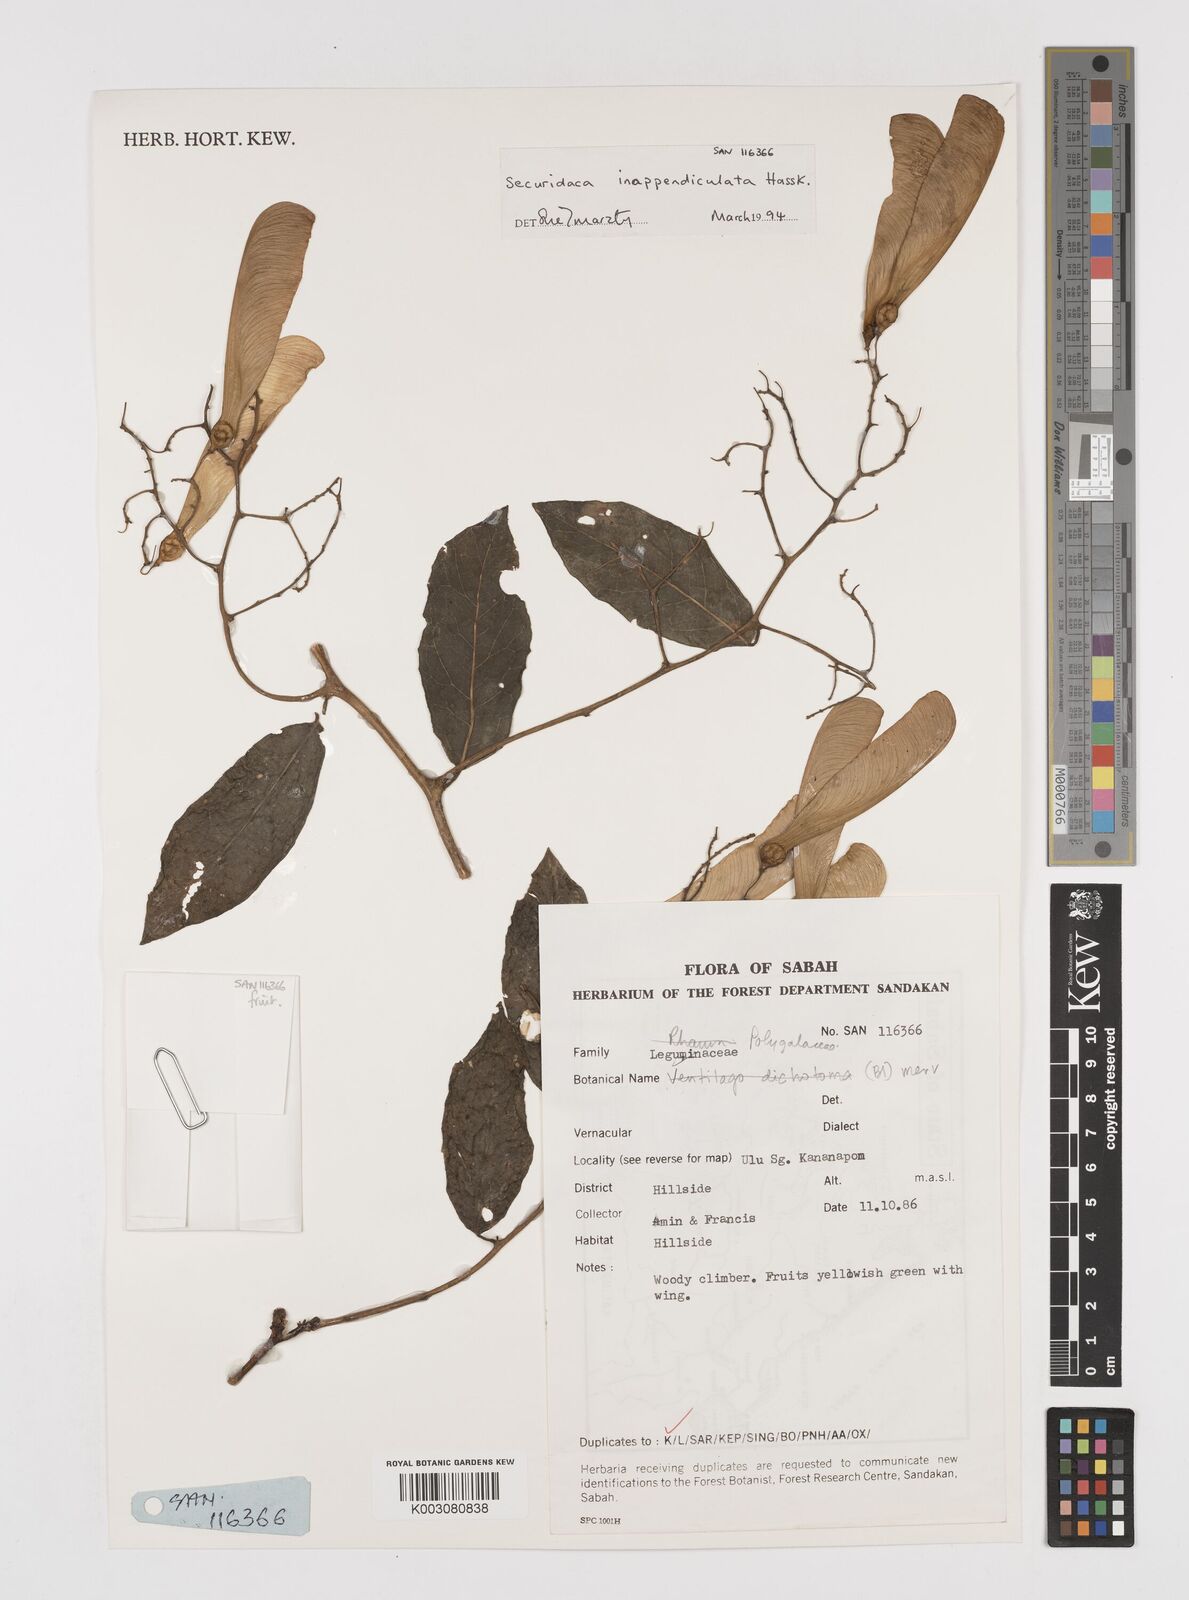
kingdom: Plantae
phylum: Tracheophyta
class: Magnoliopsida
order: Fabales
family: Polygalaceae
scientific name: Polygalaceae
